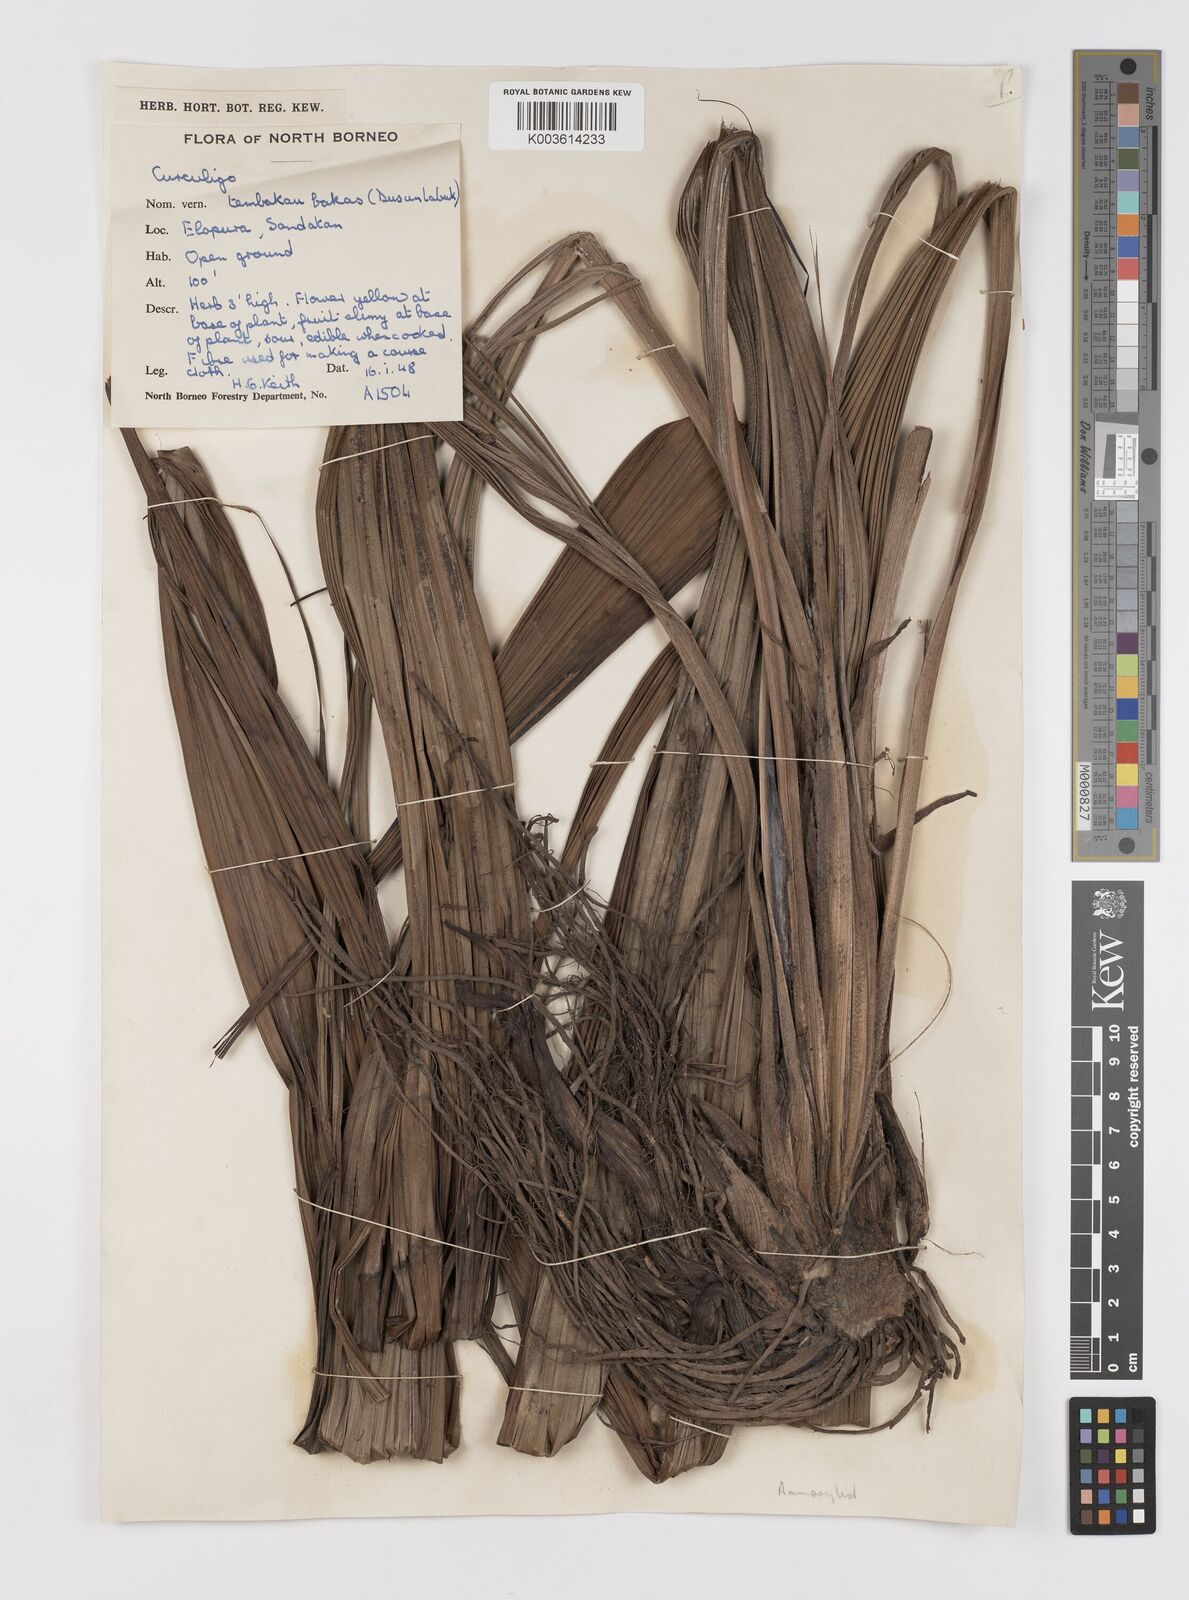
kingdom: Plantae
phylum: Tracheophyta
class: Liliopsida
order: Asparagales
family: Hypoxidaceae
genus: Curculigo
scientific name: Curculigo
